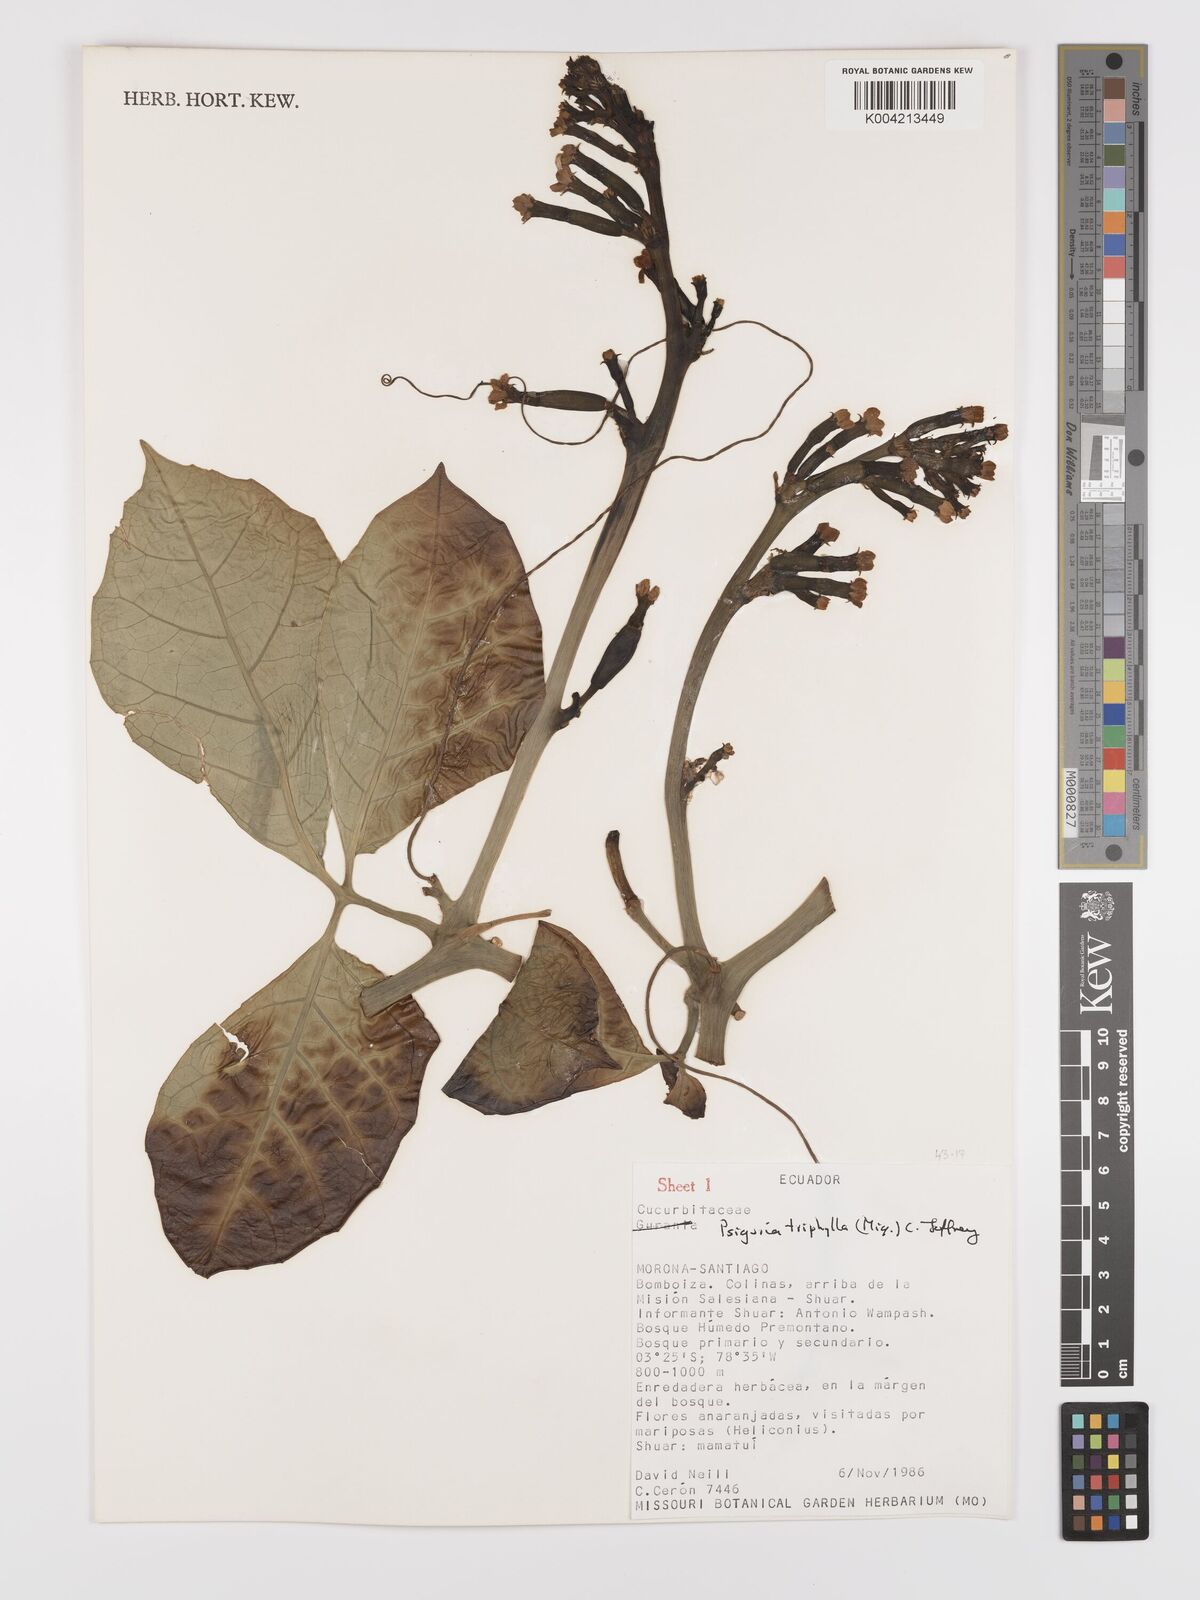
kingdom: Plantae
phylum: Tracheophyta
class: Magnoliopsida
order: Cucurbitales
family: Cucurbitaceae
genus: Psiguria
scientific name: Psiguria triphylla
